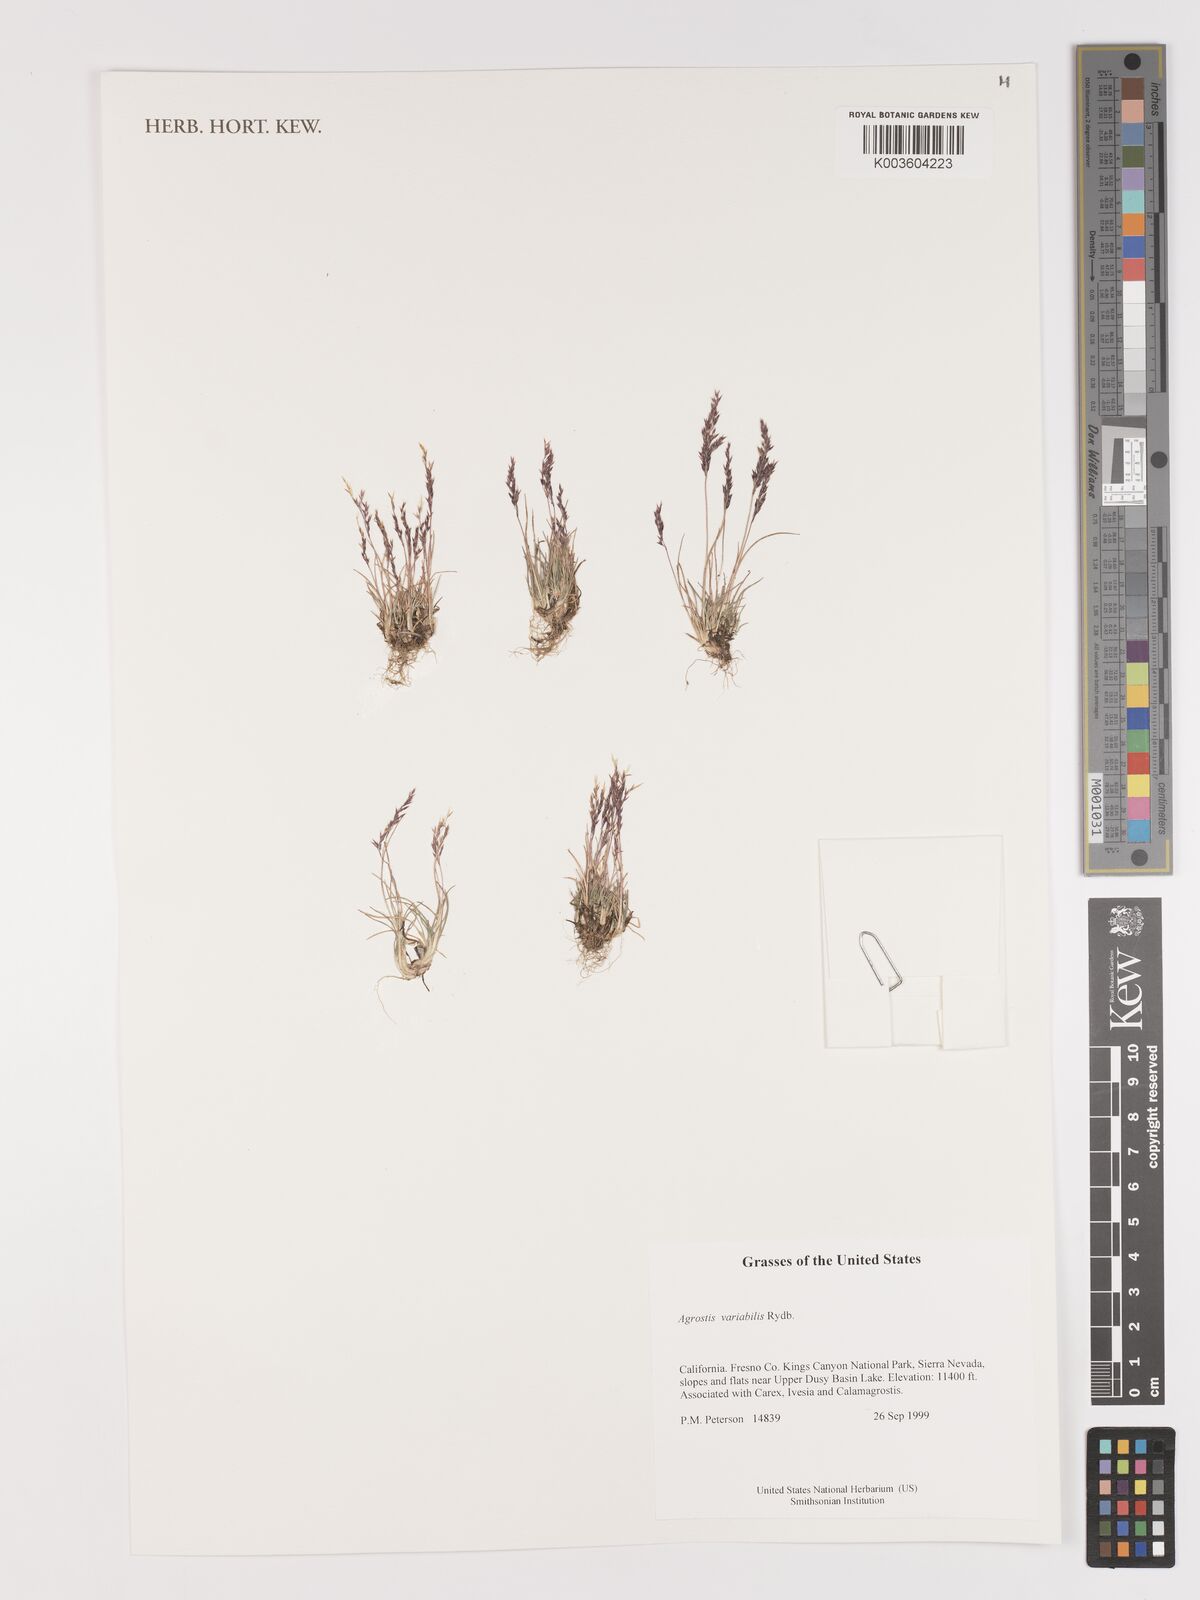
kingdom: Plantae
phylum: Tracheophyta
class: Liliopsida
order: Poales
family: Poaceae
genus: Agrostis
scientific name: Agrostis variabilis
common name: Alpine bent
